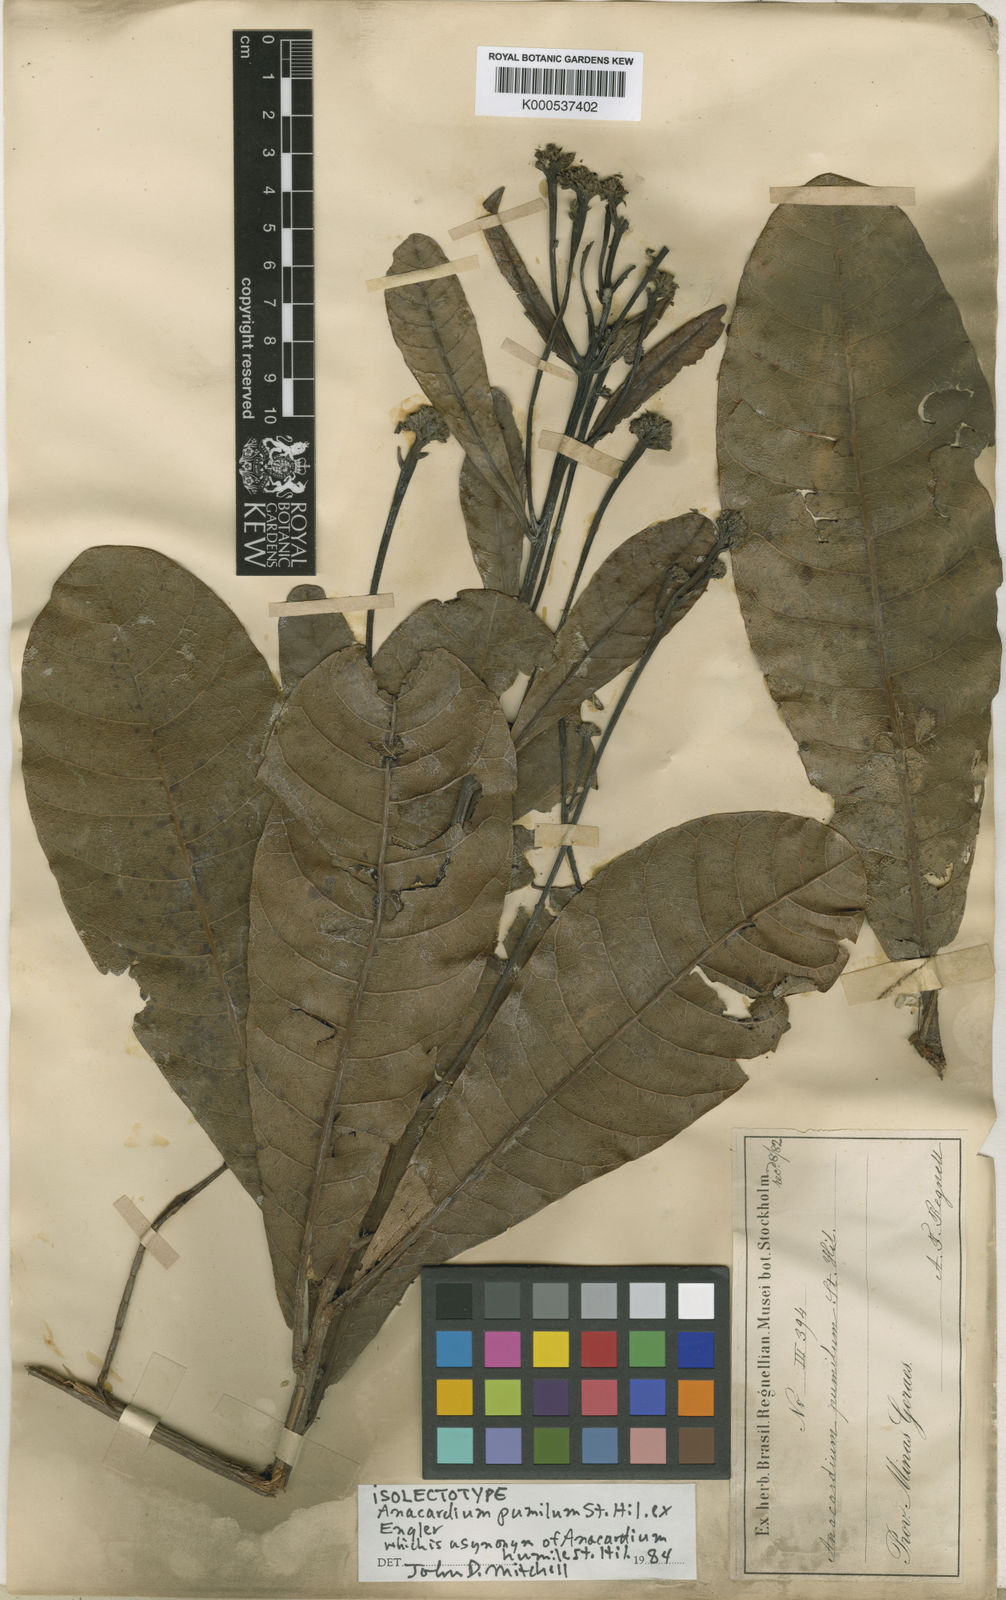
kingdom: Plantae
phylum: Tracheophyta
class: Magnoliopsida
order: Sapindales
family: Anacardiaceae
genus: Anacardium
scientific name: Anacardium humile
